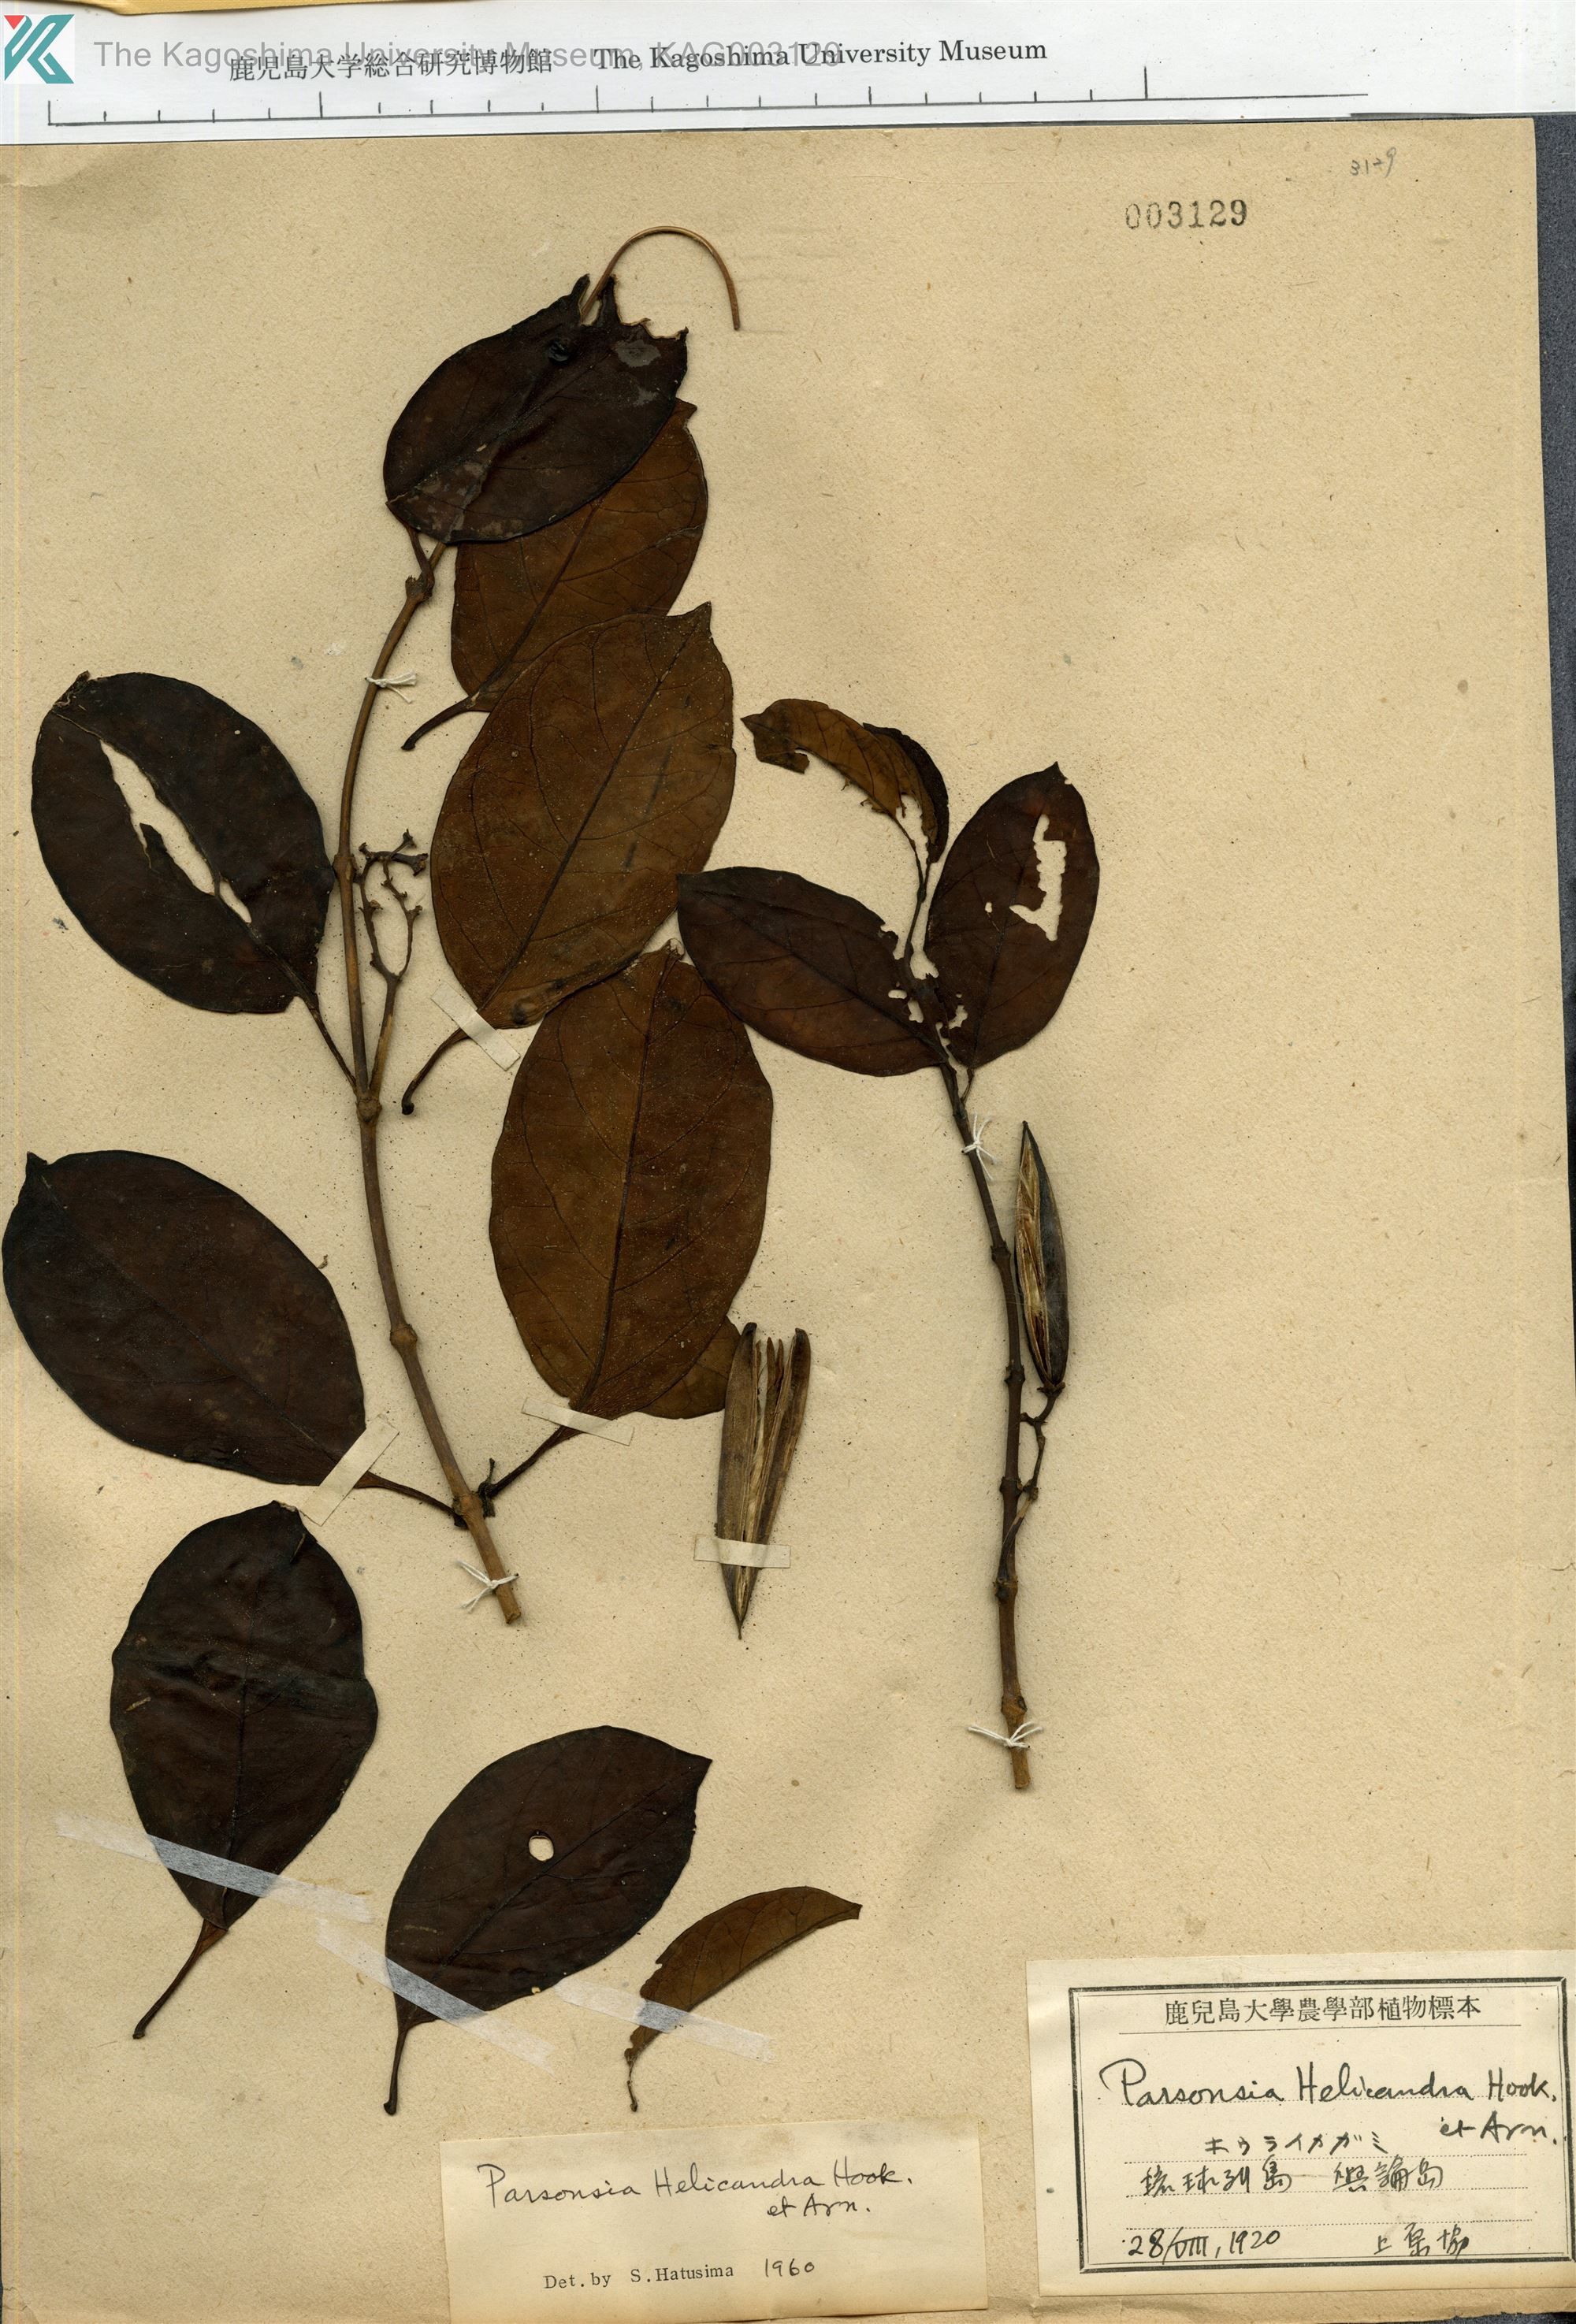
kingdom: Plantae
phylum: Tracheophyta
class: Magnoliopsida
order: Gentianales
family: Apocynaceae
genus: Parsonsia
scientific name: Parsonsia alboflavescens
